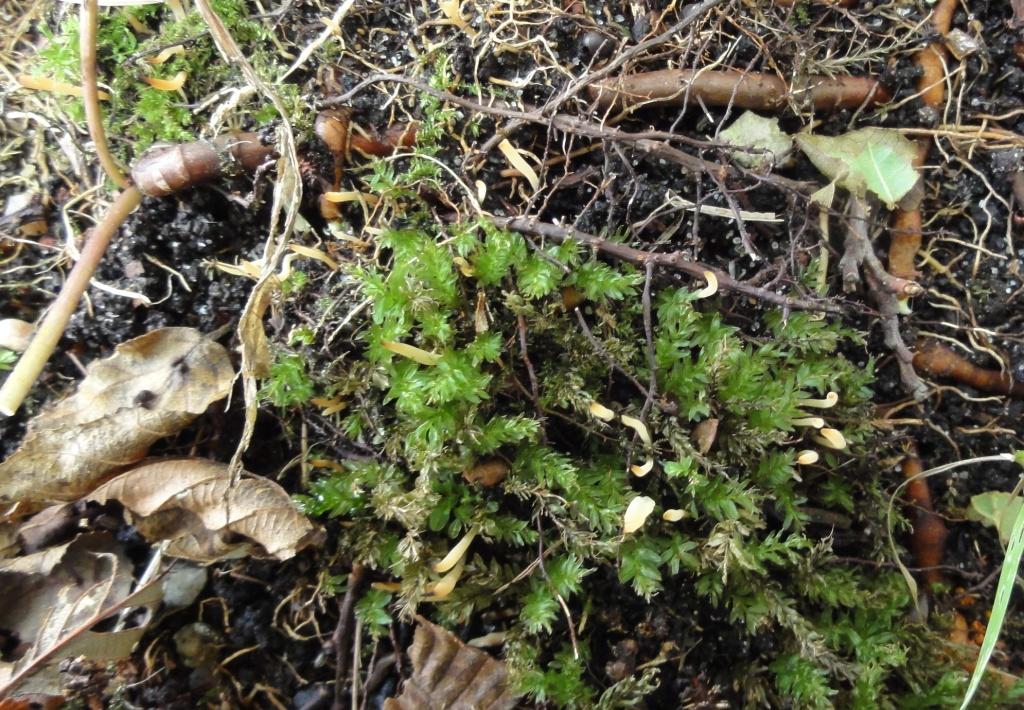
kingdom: Fungi
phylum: Basidiomycota
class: Agaricomycetes
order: Agaricales
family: Clavariaceae
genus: Clavulinopsis
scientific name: Clavulinopsis rufipes
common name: småsporet køllesvamp
